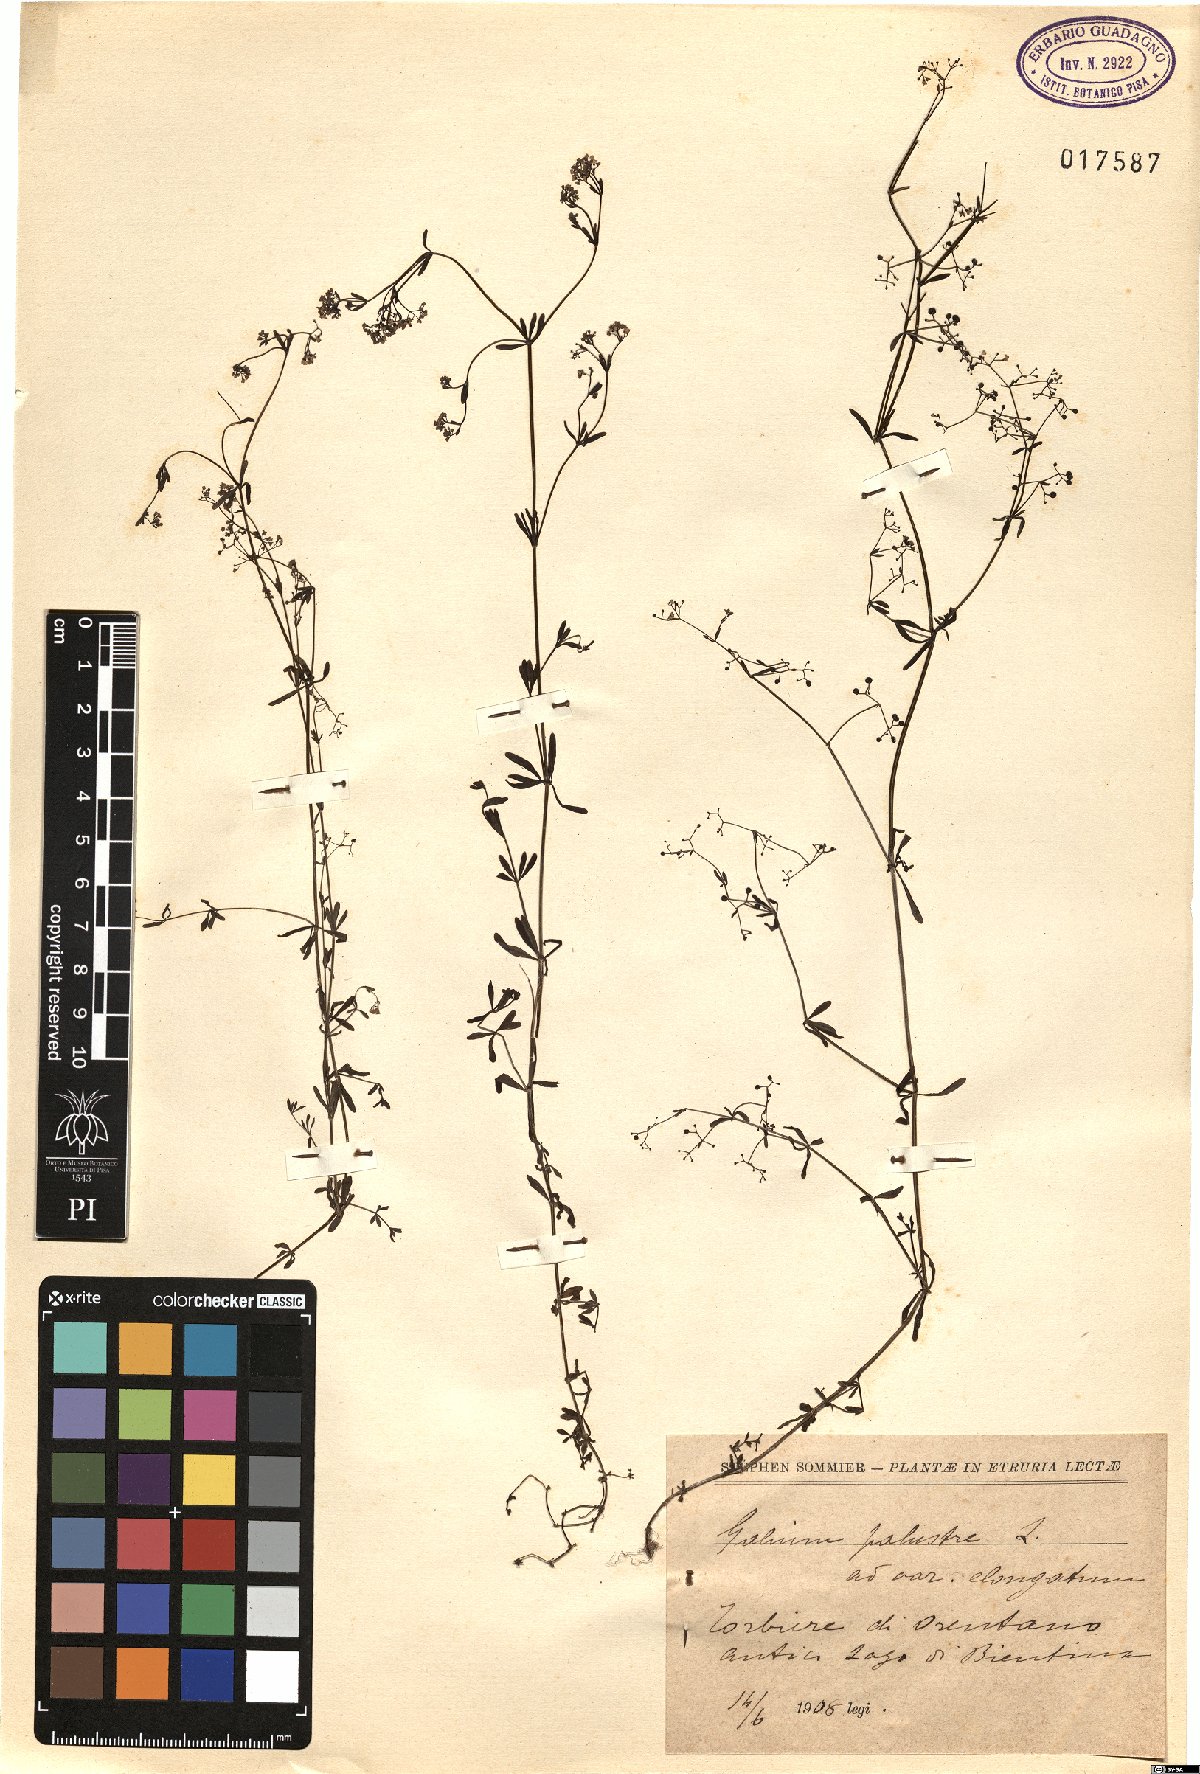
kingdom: Plantae
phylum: Tracheophyta
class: Magnoliopsida
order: Gentianales
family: Rubiaceae
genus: Galium
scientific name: Galium elongatum
